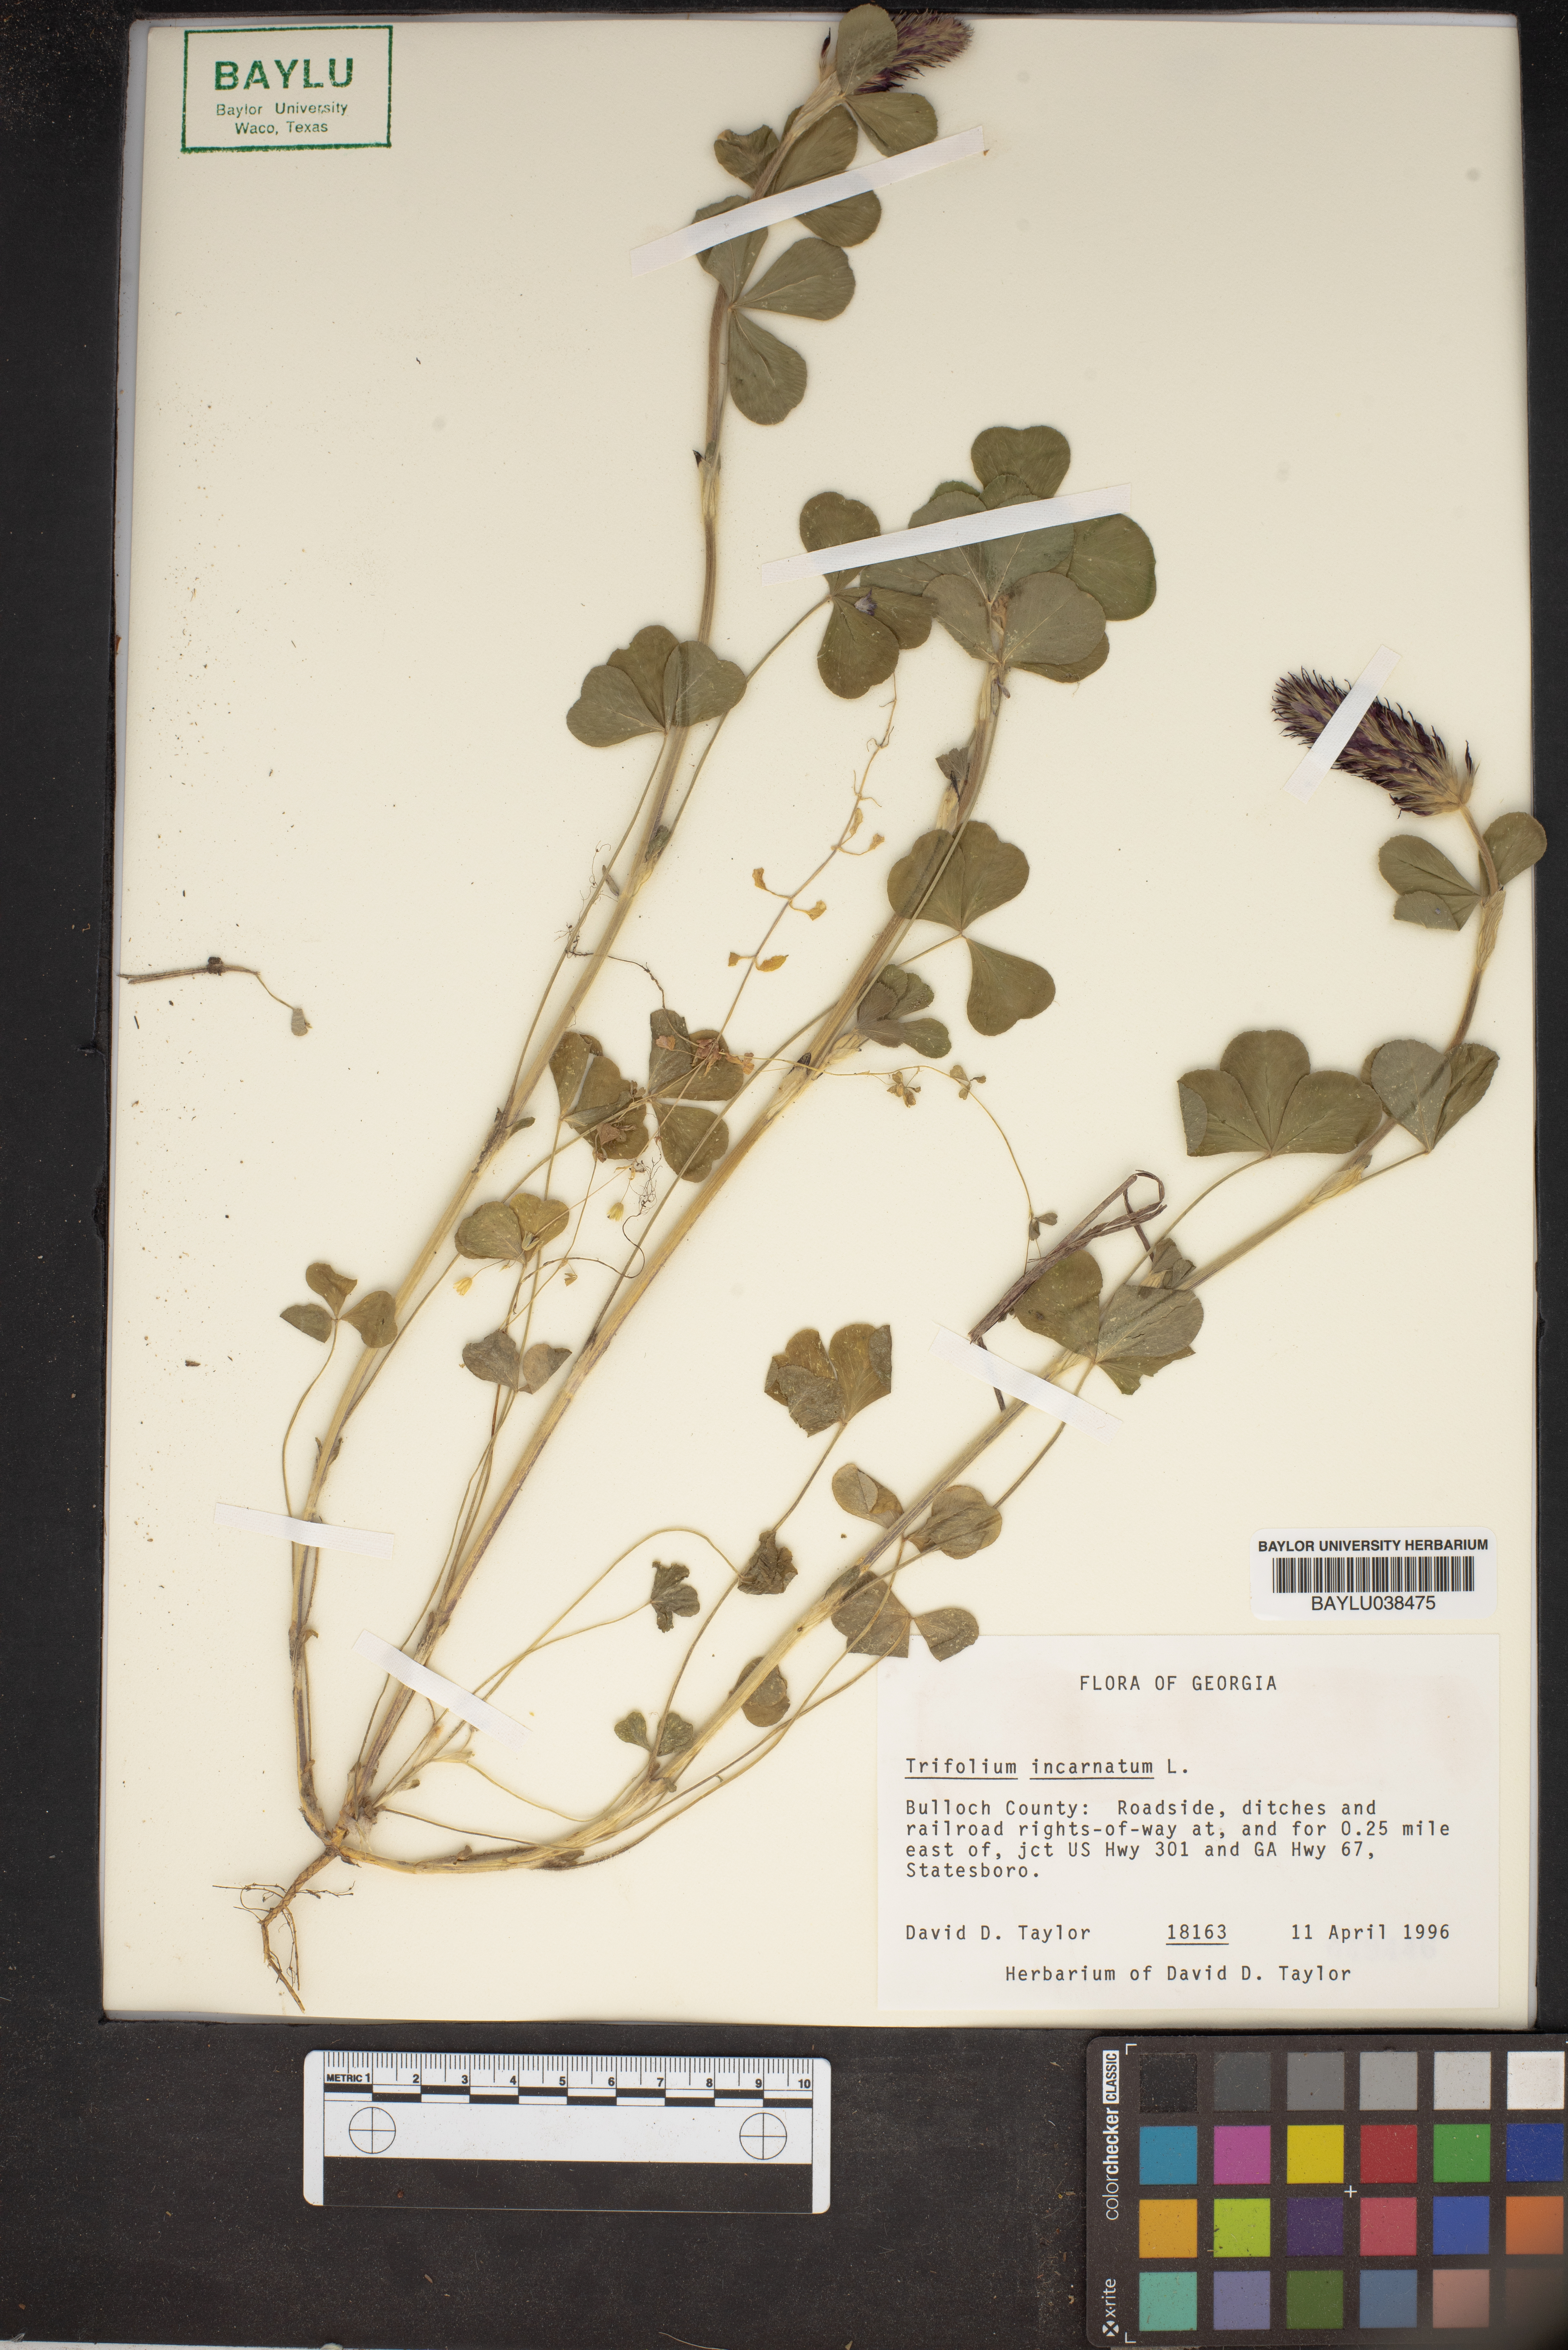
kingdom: Plantae
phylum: Tracheophyta
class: Magnoliopsida
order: Fabales
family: Fabaceae
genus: Trifolium
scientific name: Trifolium incarnatum
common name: Crimson clover
